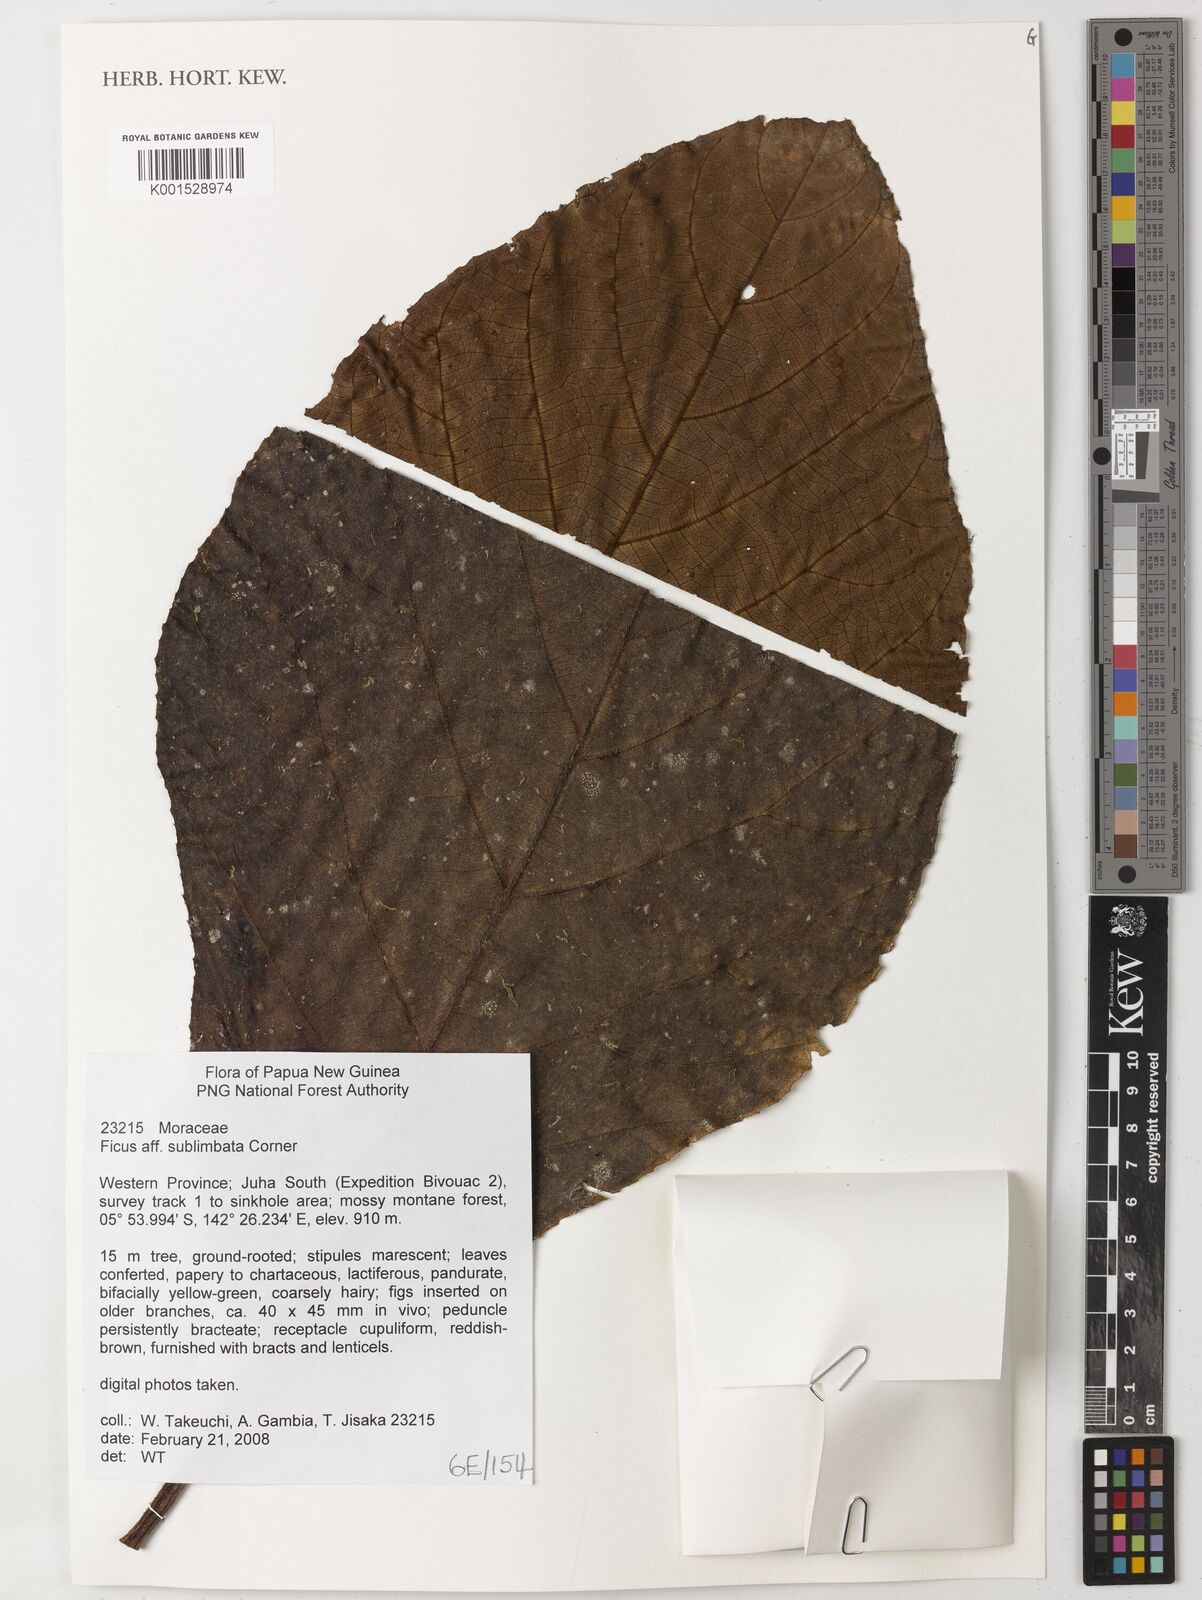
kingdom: Plantae
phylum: Tracheophyta
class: Magnoliopsida
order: Rosales
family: Moraceae
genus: Ficus
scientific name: Ficus sublimbata
